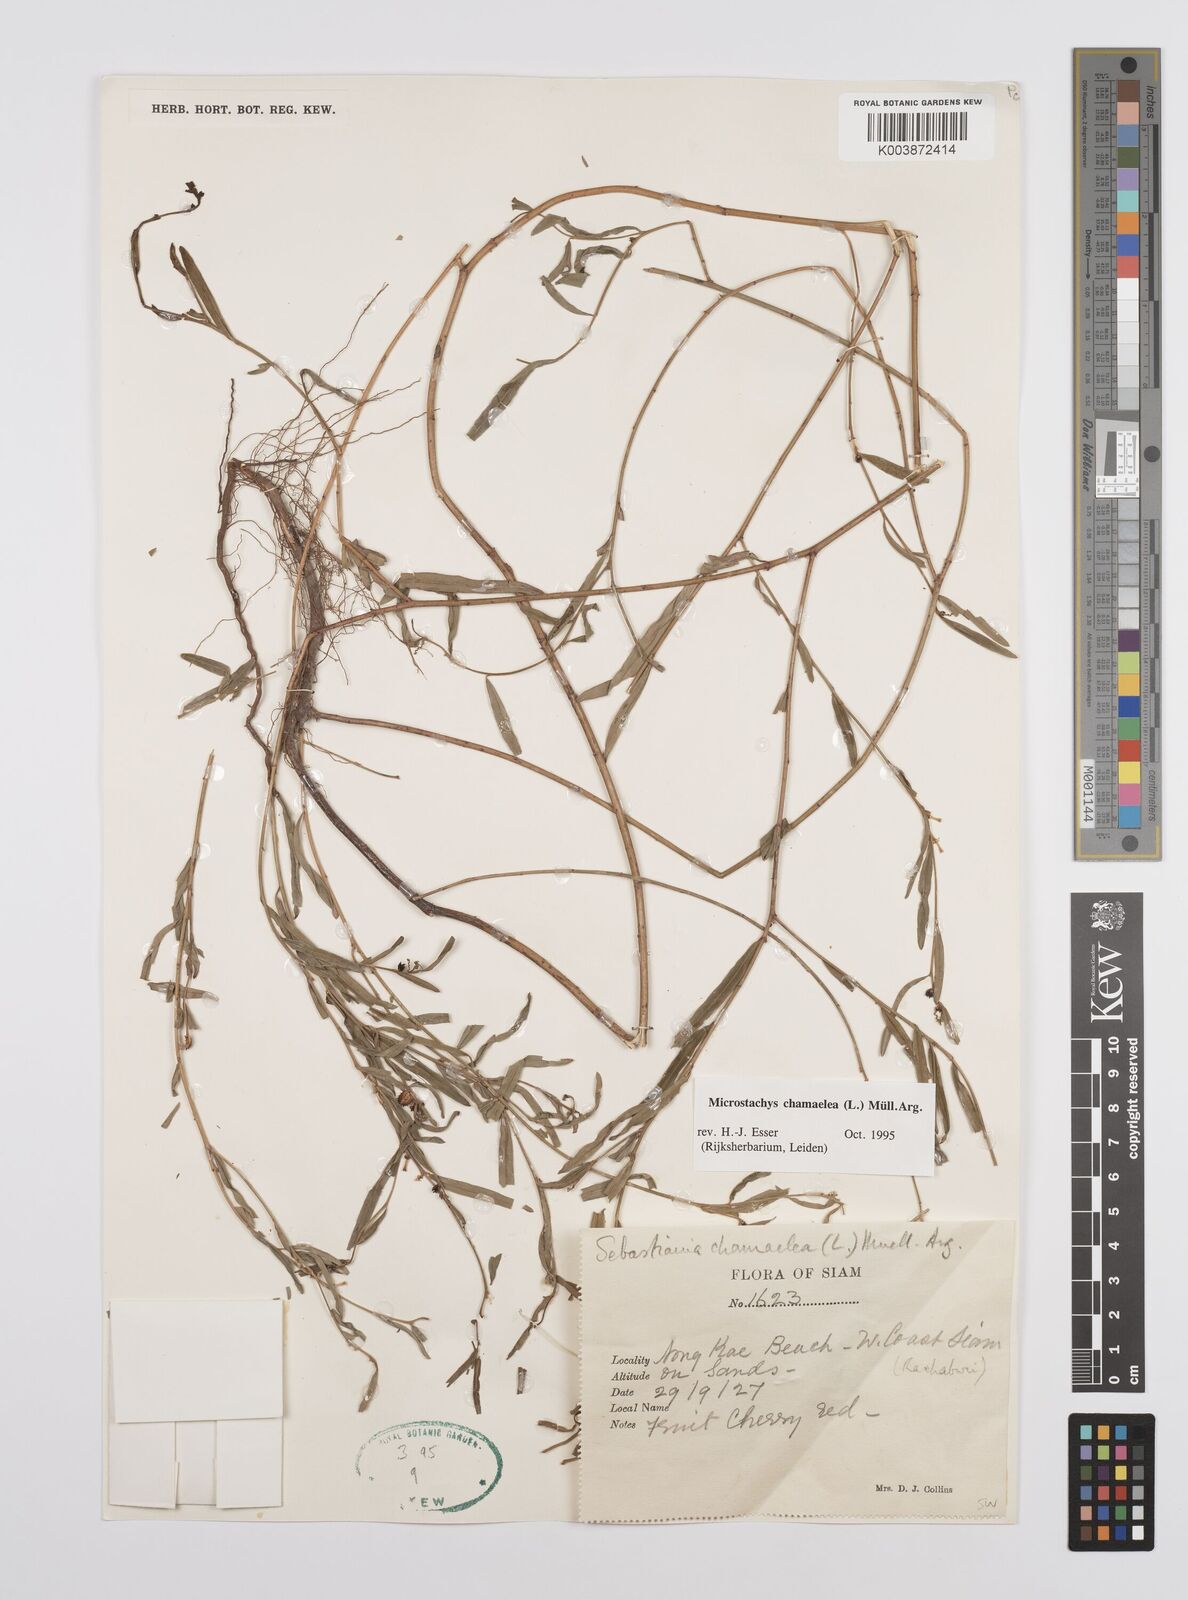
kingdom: Plantae
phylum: Tracheophyta
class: Magnoliopsida
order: Malpighiales
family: Euphorbiaceae
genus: Microstachys
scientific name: Microstachys chamaelea
